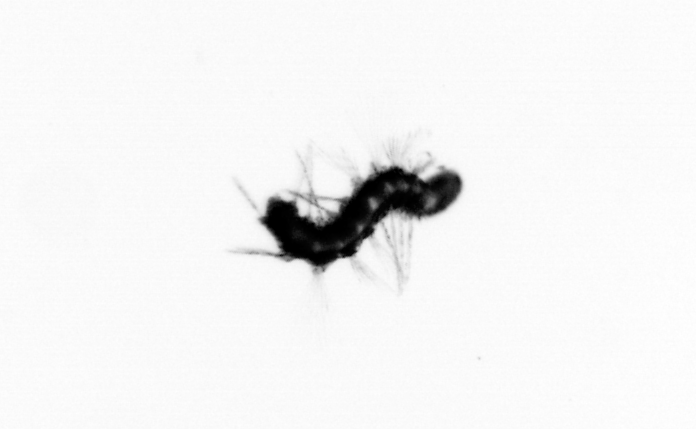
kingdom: Animalia
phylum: Annelida
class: Polychaeta
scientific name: Polychaeta
